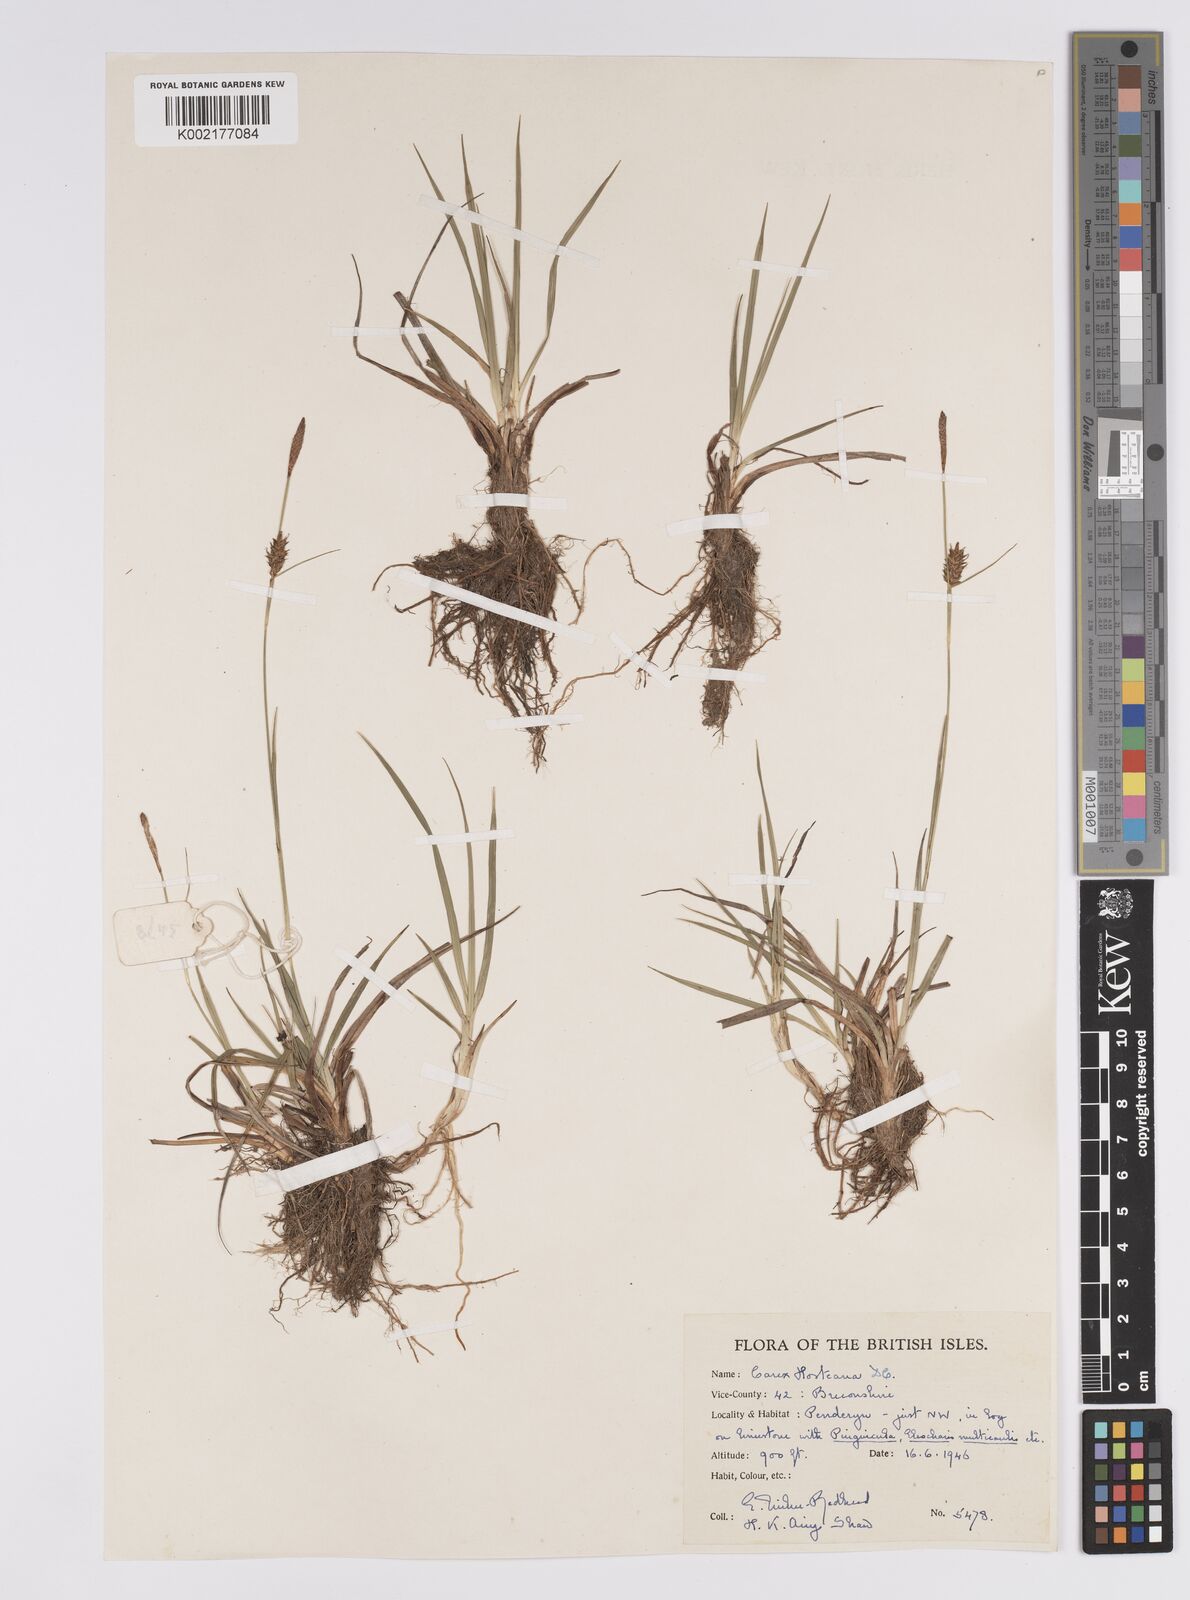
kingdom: Plantae
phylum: Tracheophyta
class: Liliopsida
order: Poales
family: Cyperaceae
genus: Carex
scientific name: Carex hostiana
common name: Tawny sedge
